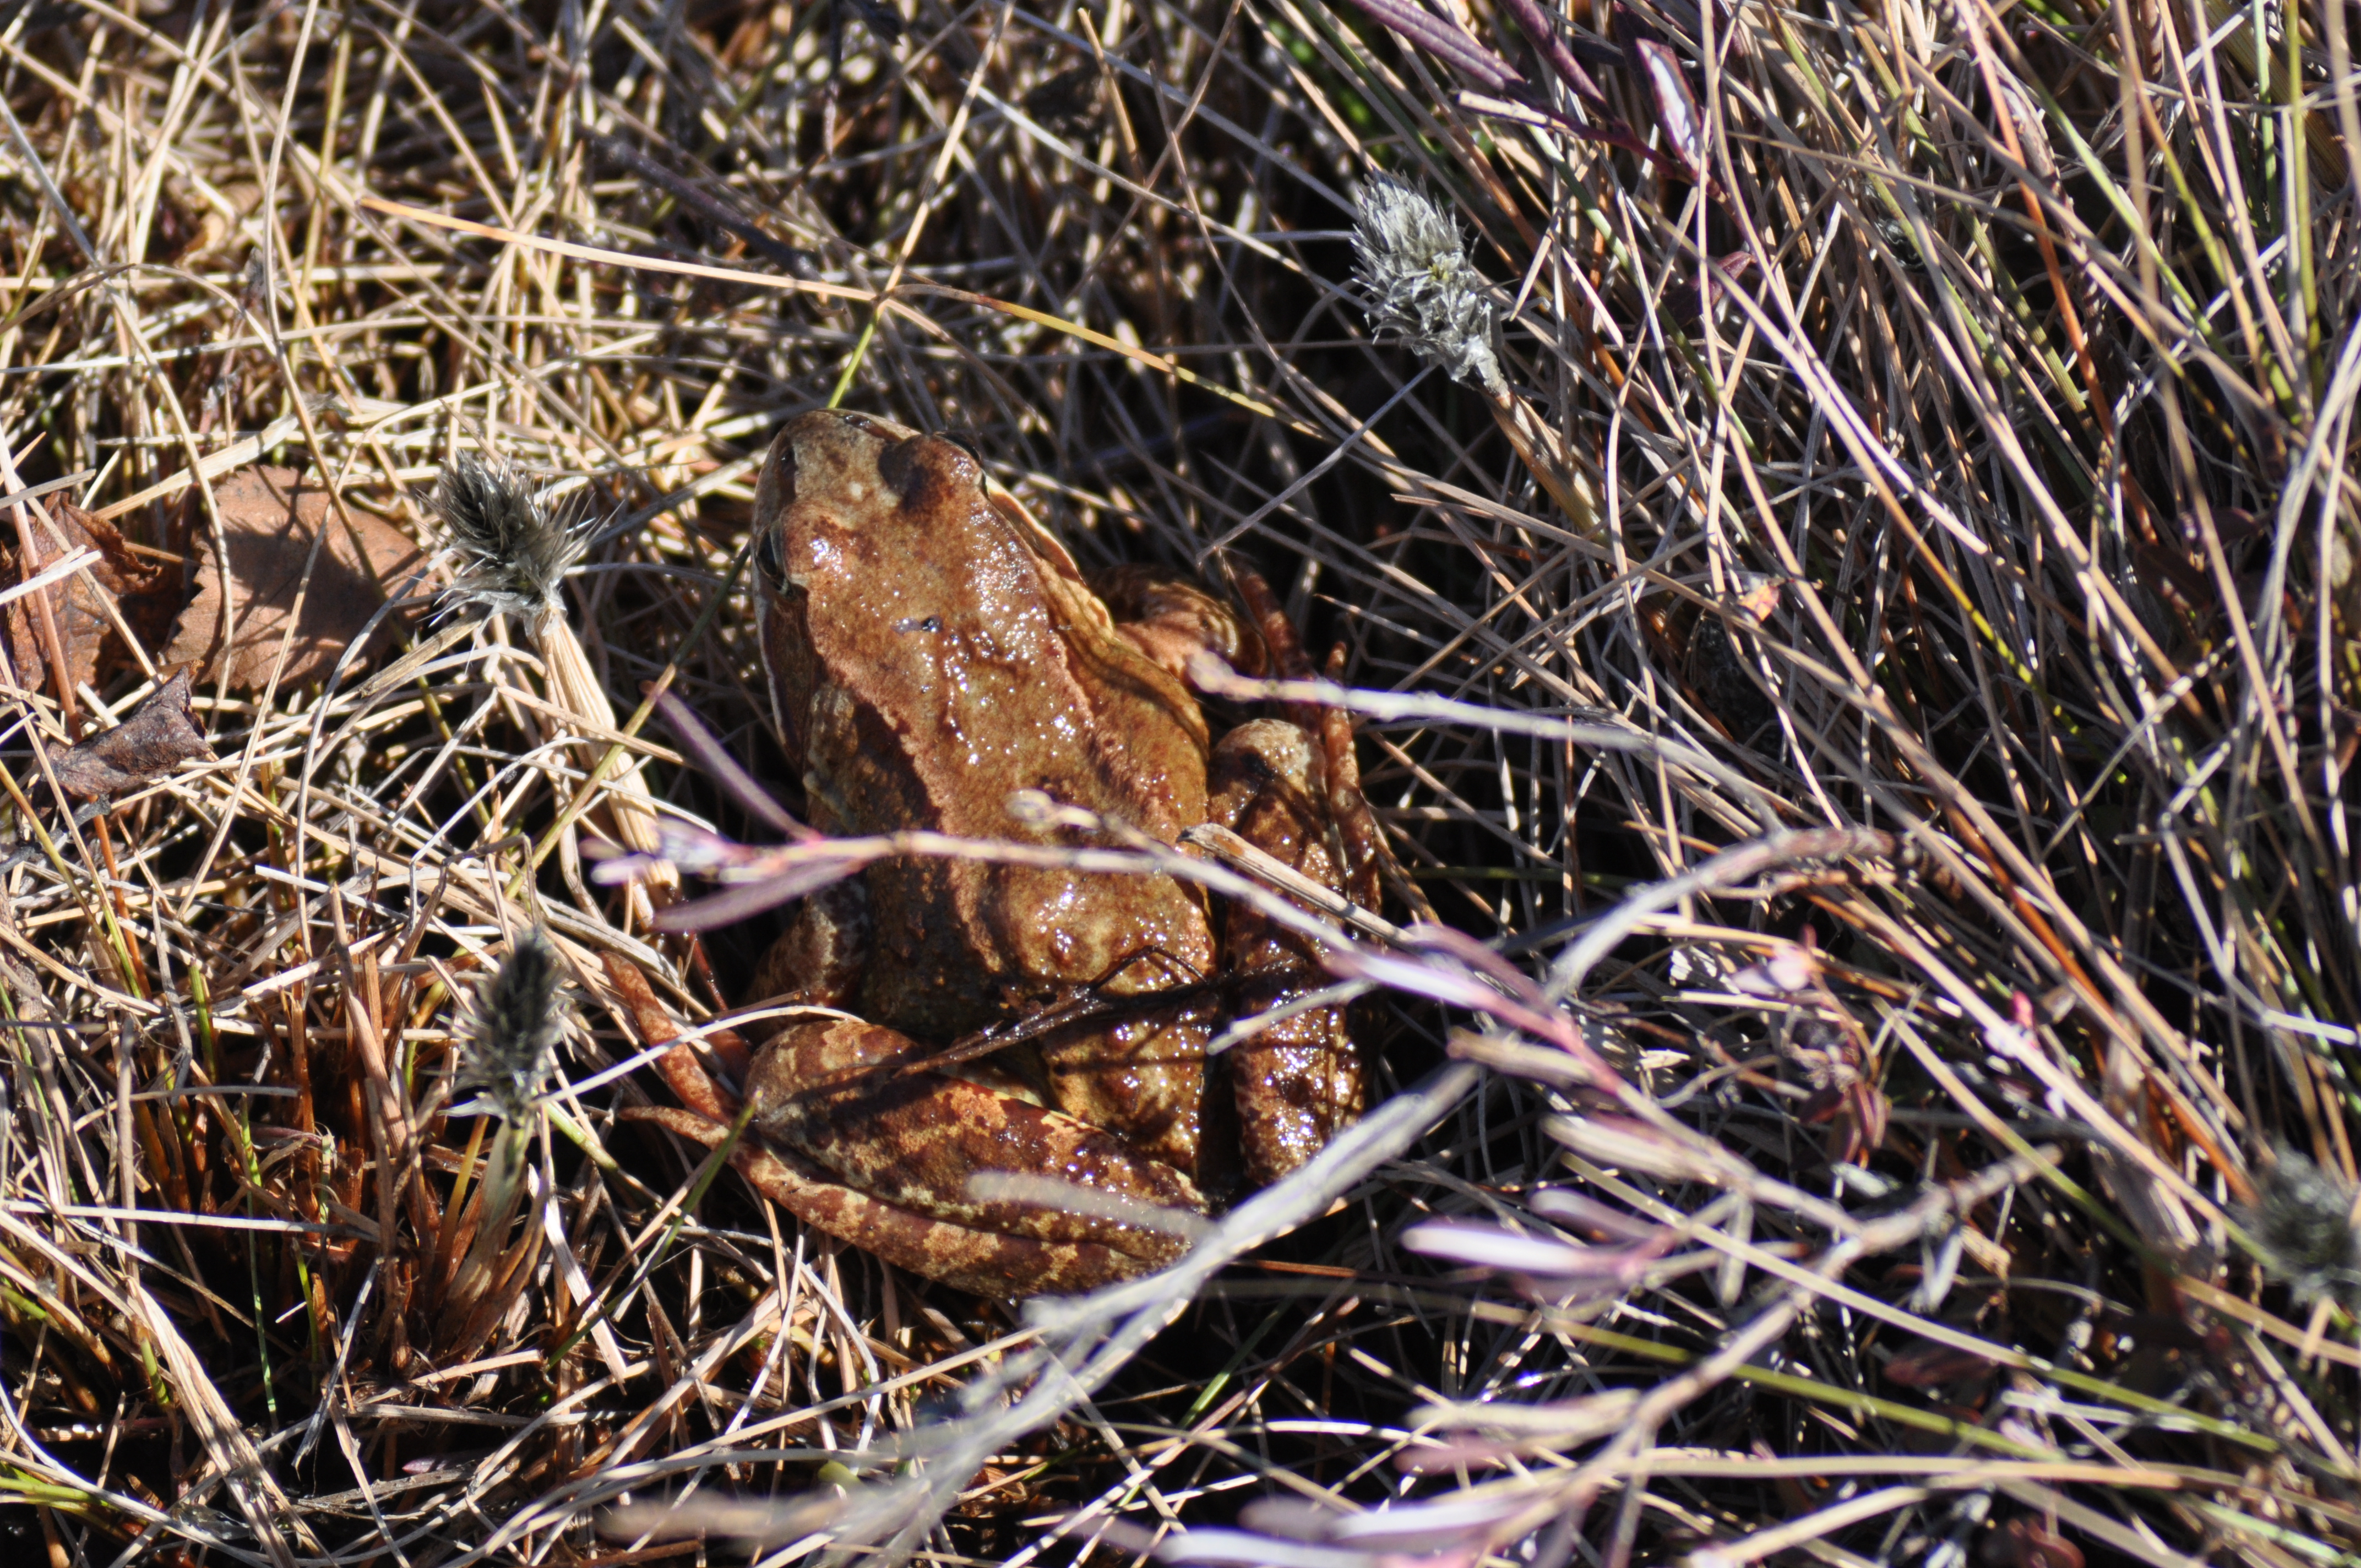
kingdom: Animalia
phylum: Chordata
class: Amphibia
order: Anura
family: Ranidae
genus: Rana
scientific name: Rana temporaria
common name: Common frog
